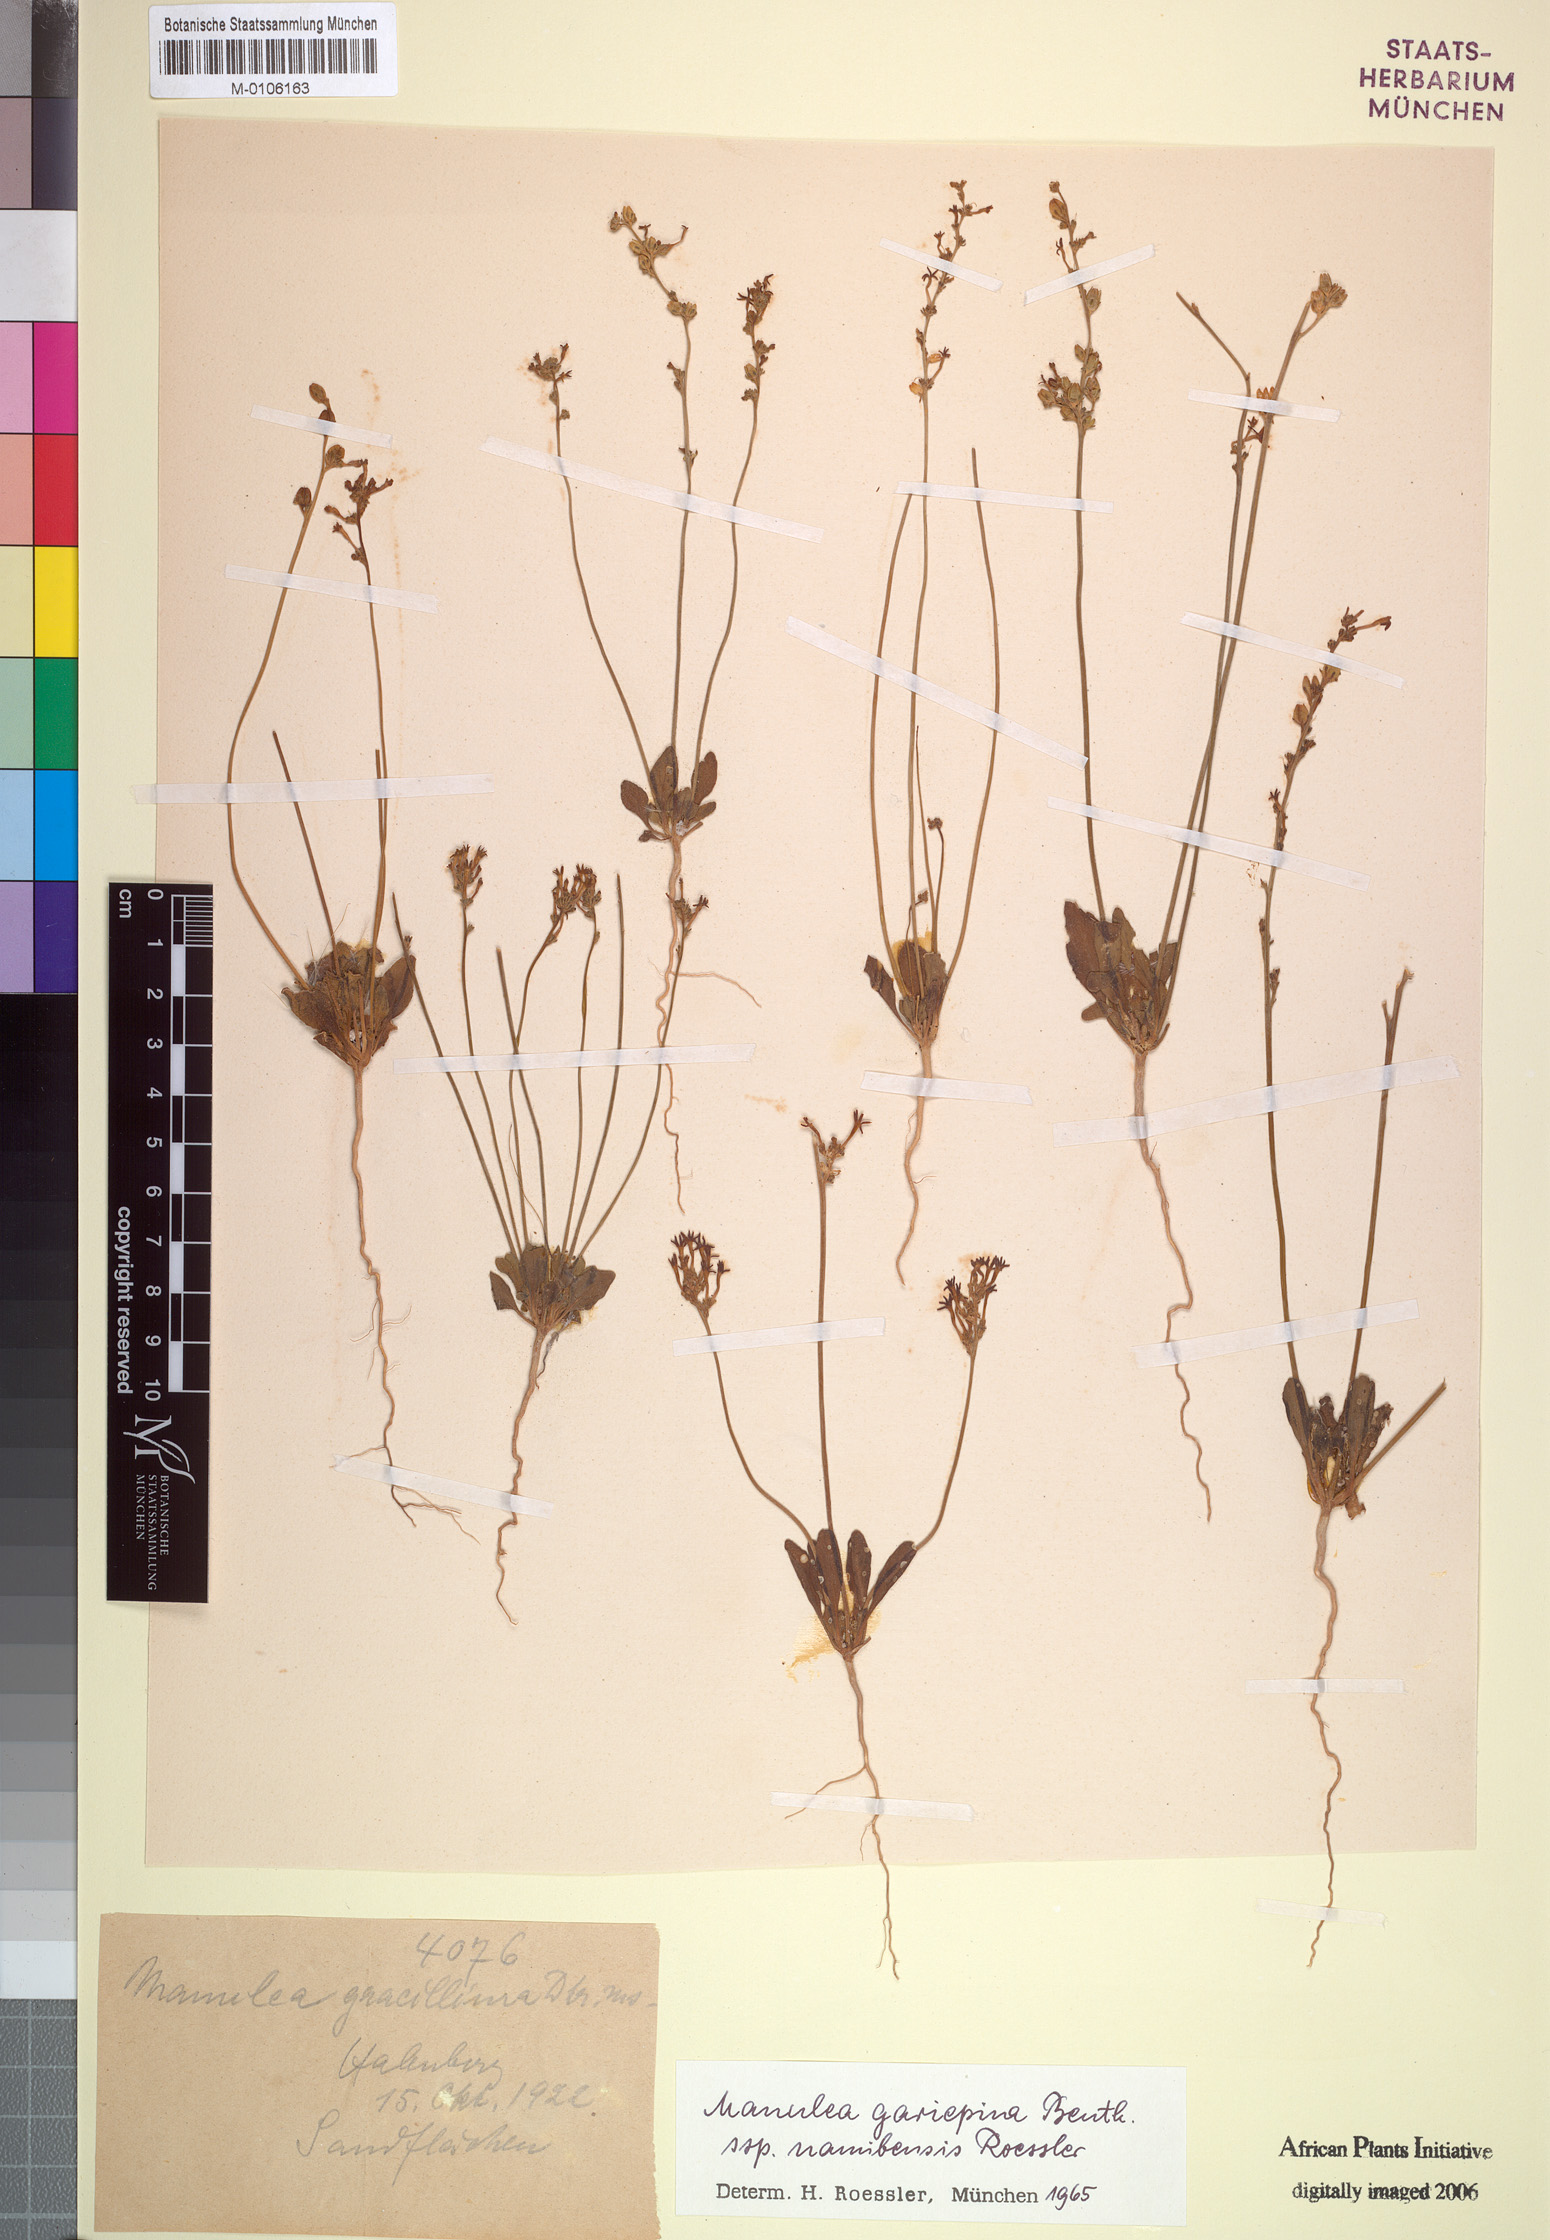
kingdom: Plantae
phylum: Tracheophyta
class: Magnoliopsida
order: Lamiales
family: Scrophulariaceae
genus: Manulea
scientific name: Manulea namibensis
